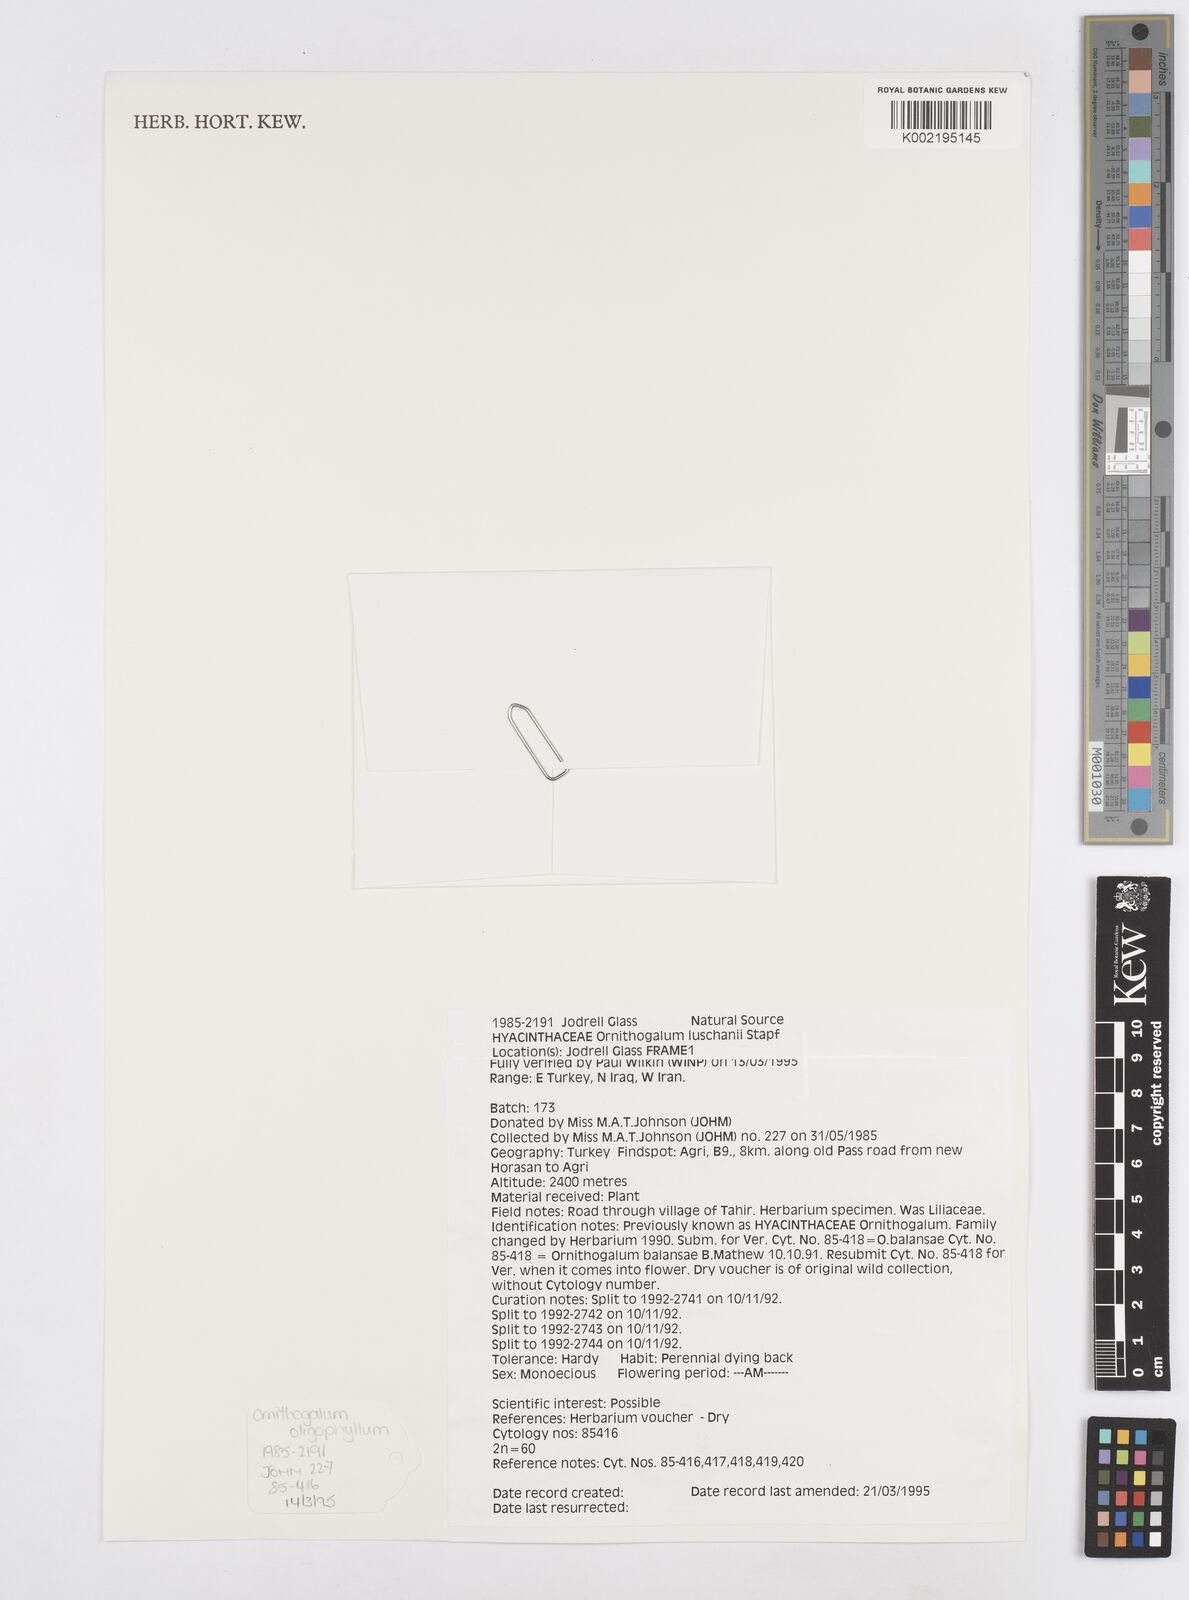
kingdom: Plantae
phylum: Tracheophyta
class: Liliopsida
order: Asparagales
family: Asparagaceae
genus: Ornithogalum
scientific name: Ornithogalum luschanii
